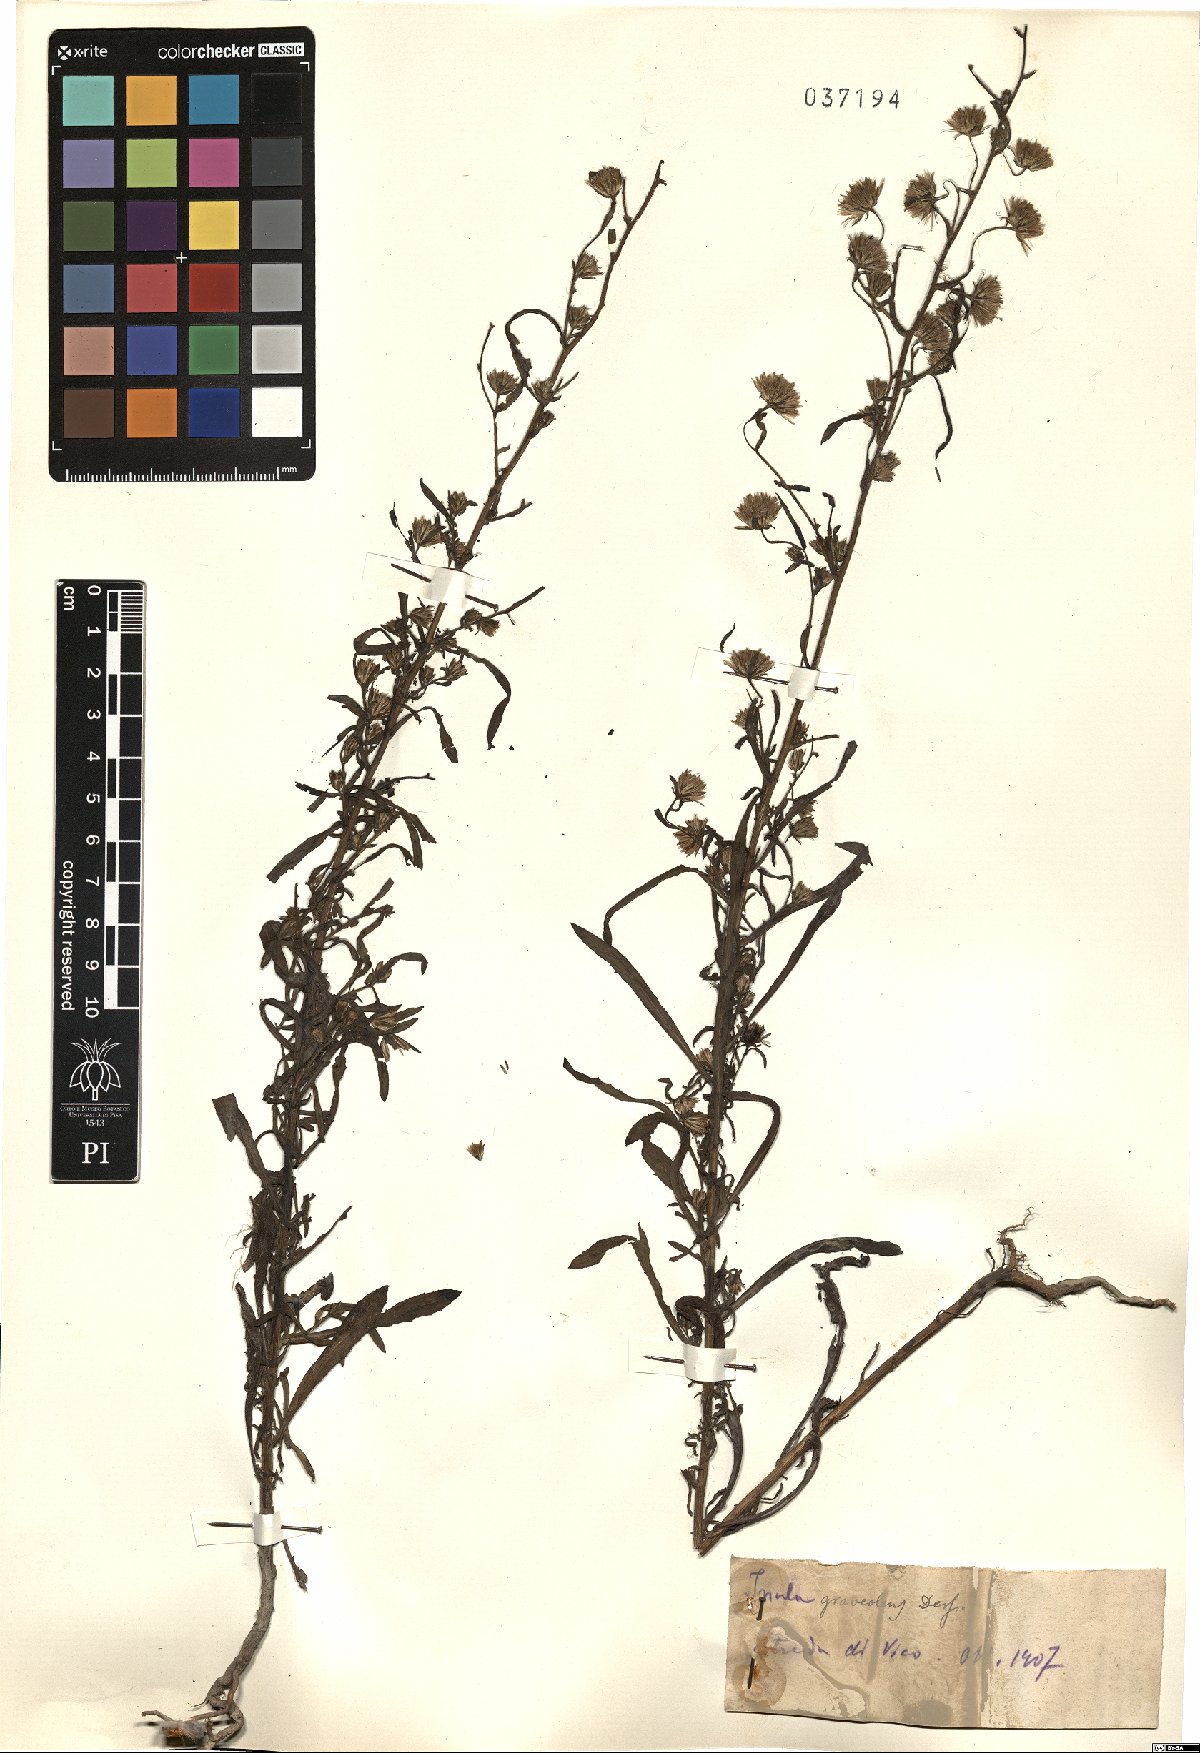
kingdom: Plantae
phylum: Tracheophyta
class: Magnoliopsida
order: Asterales
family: Asteraceae
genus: Dittrichia
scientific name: Dittrichia graveolens
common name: Stinking fleabane
